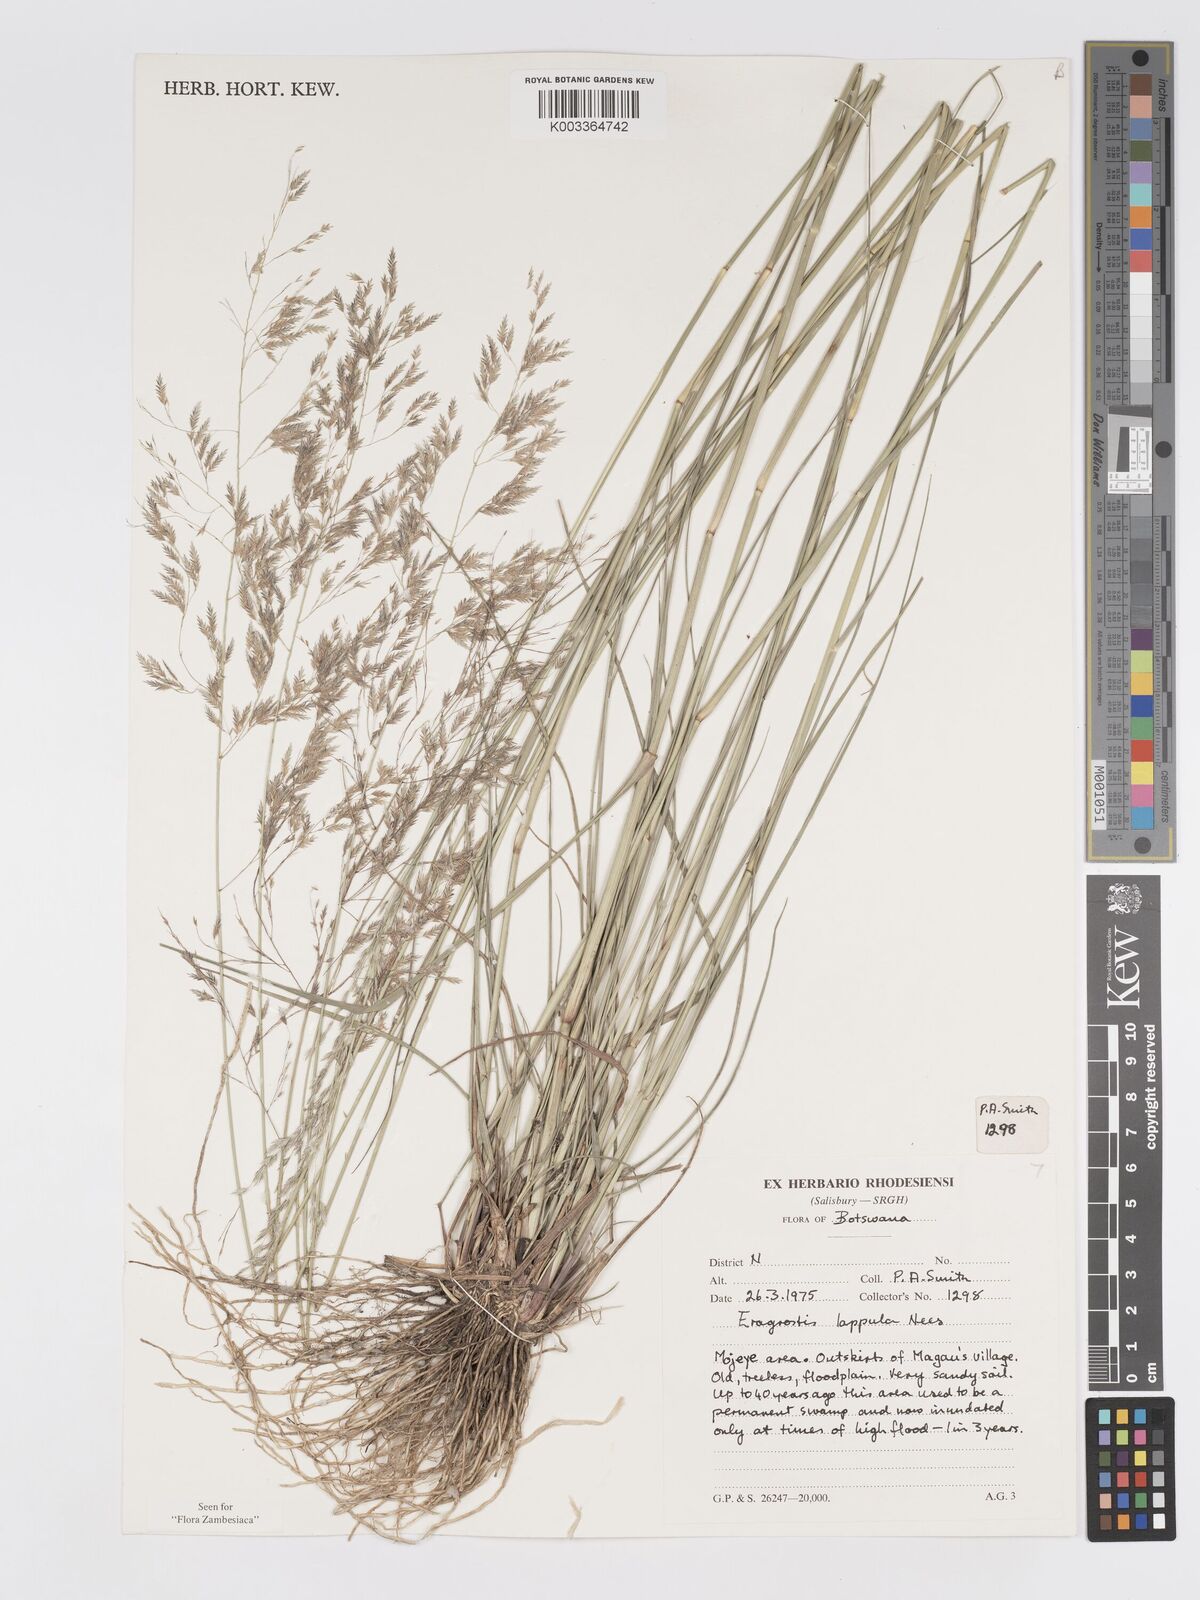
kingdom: Plantae
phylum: Tracheophyta
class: Liliopsida
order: Poales
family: Poaceae
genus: Eragrostis
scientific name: Eragrostis lappula
